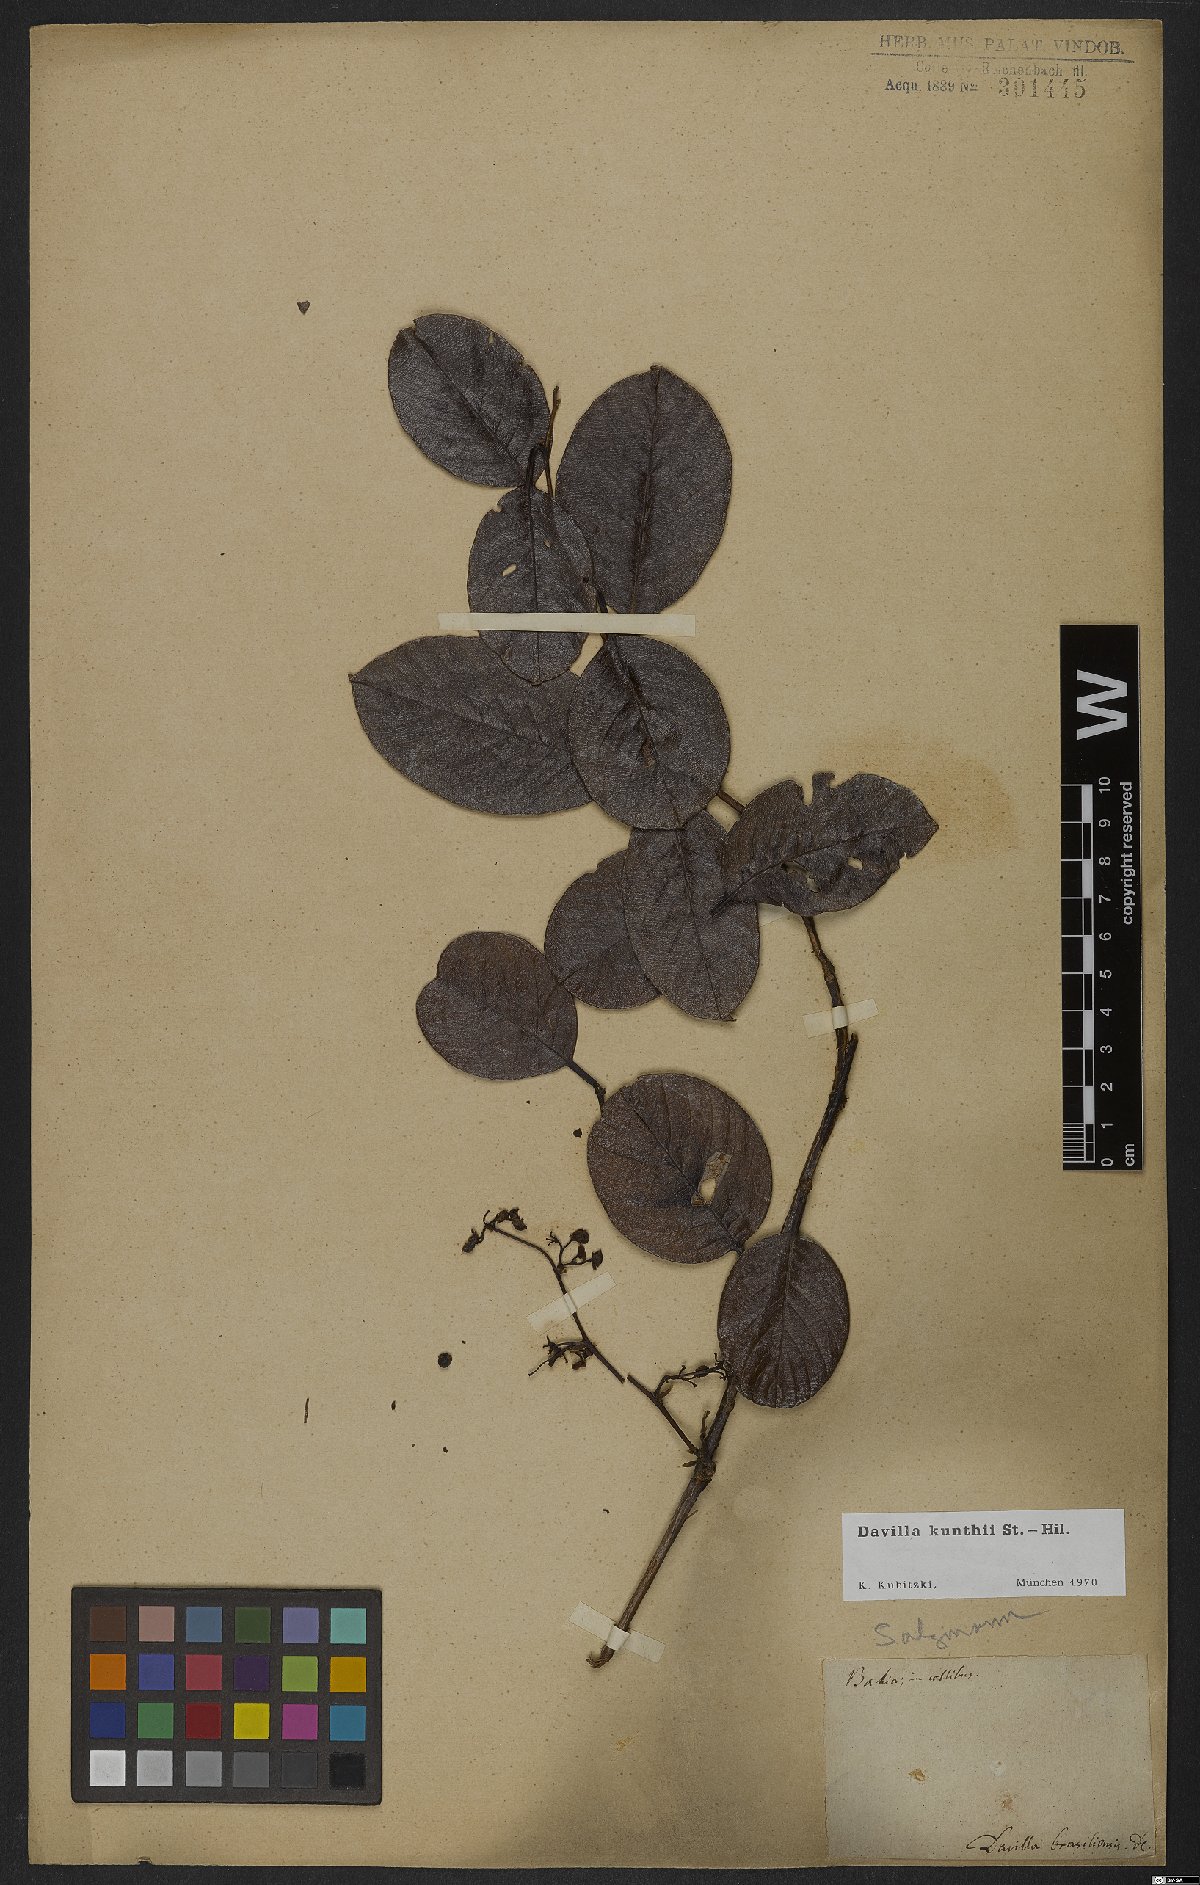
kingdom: Plantae
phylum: Tracheophyta
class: Magnoliopsida
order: Dilleniales
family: Dilleniaceae
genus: Davilla
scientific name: Davilla kunthii
